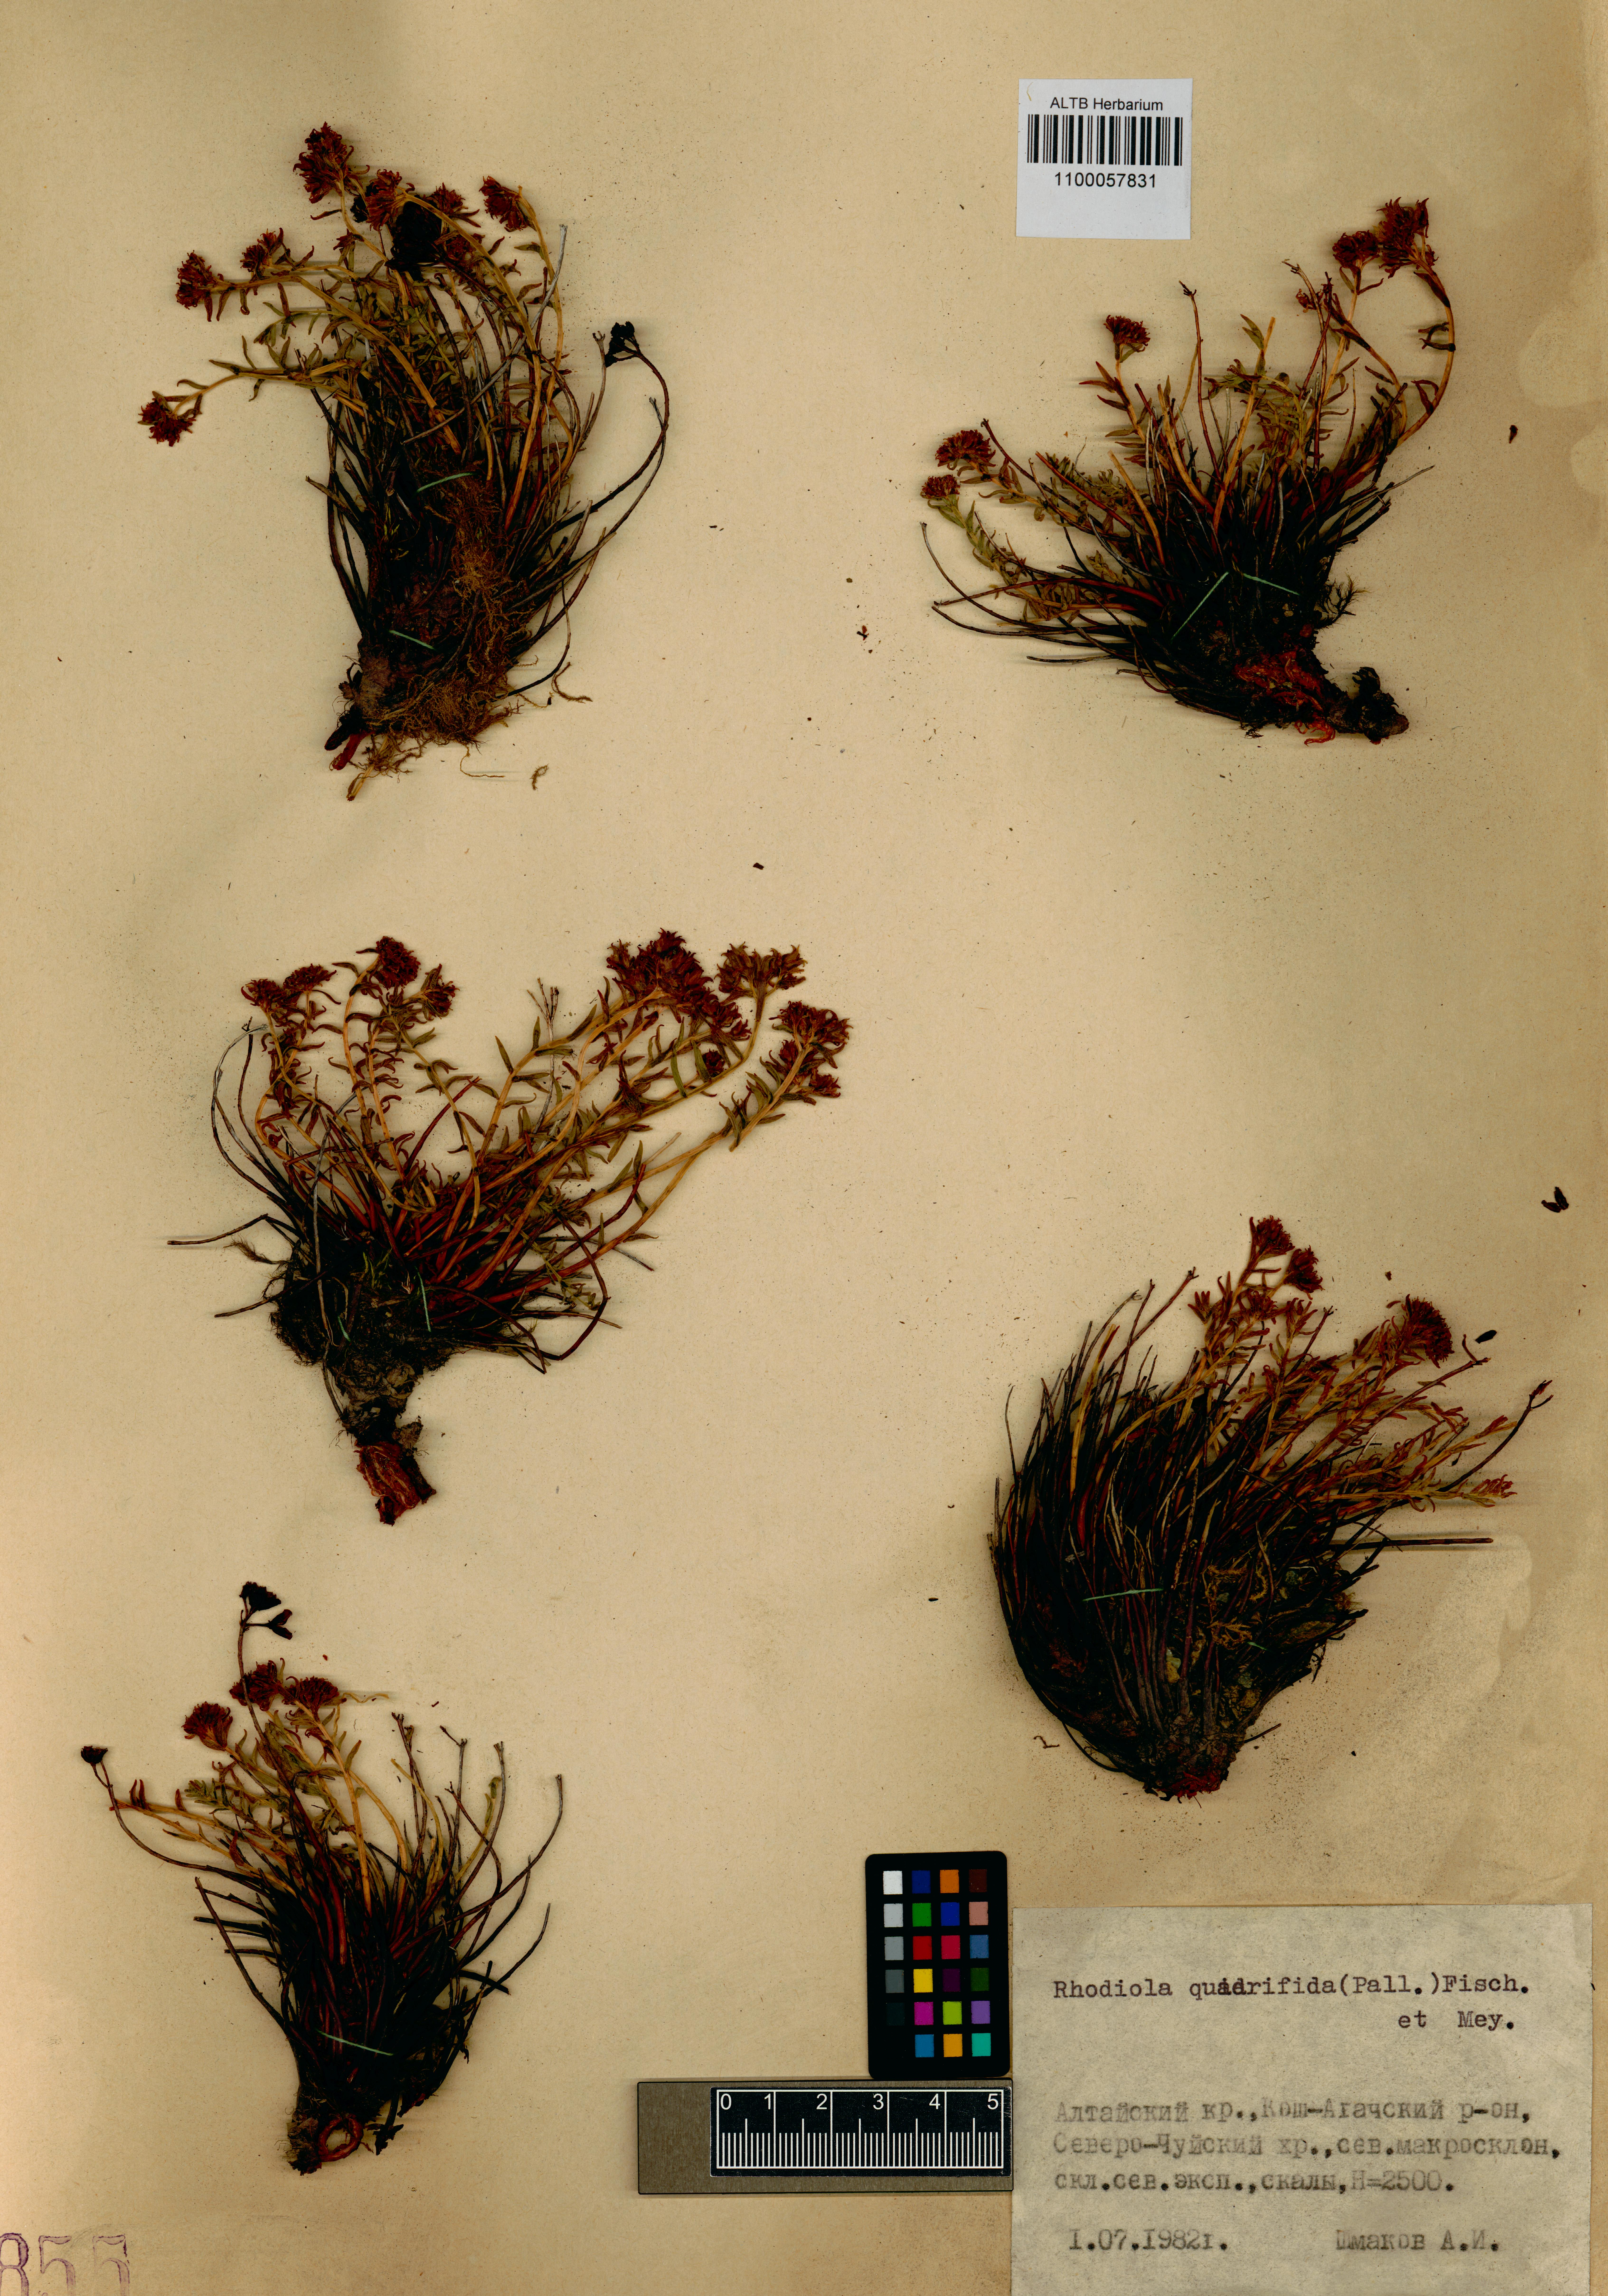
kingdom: Plantae
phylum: Tracheophyta
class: Magnoliopsida
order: Saxifragales
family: Crassulaceae
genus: Rhodiola
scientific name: Rhodiola quadrifida
